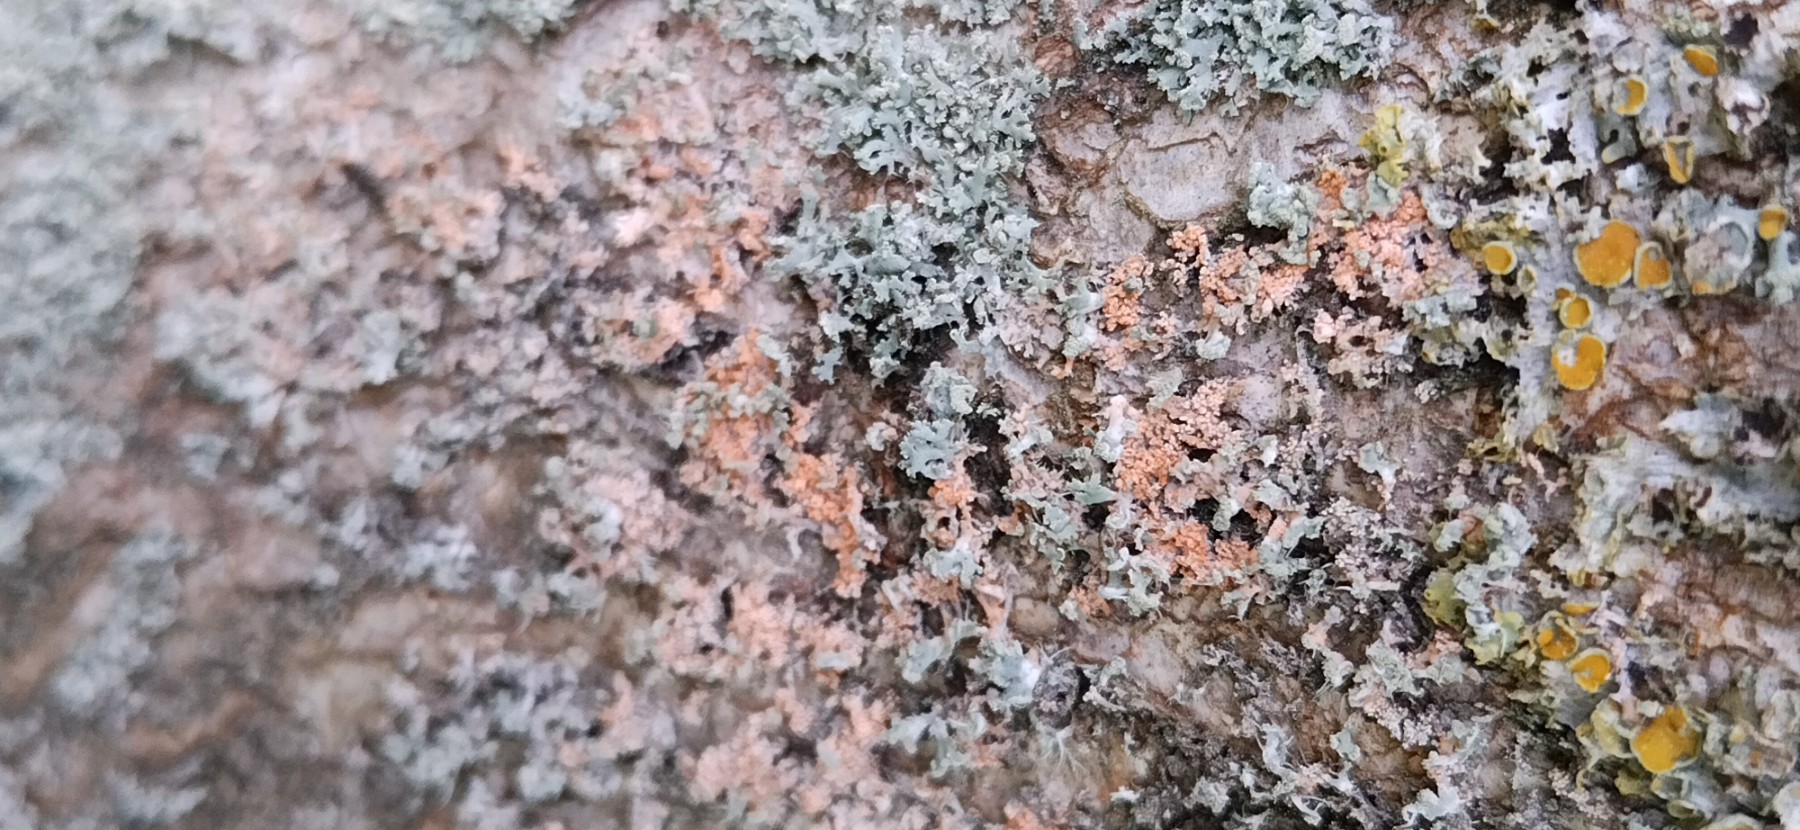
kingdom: Fungi
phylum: Basidiomycota
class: Agaricomycetes
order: Corticiales
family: Corticiaceae
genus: Erythricium
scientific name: Erythricium aurantiacum
